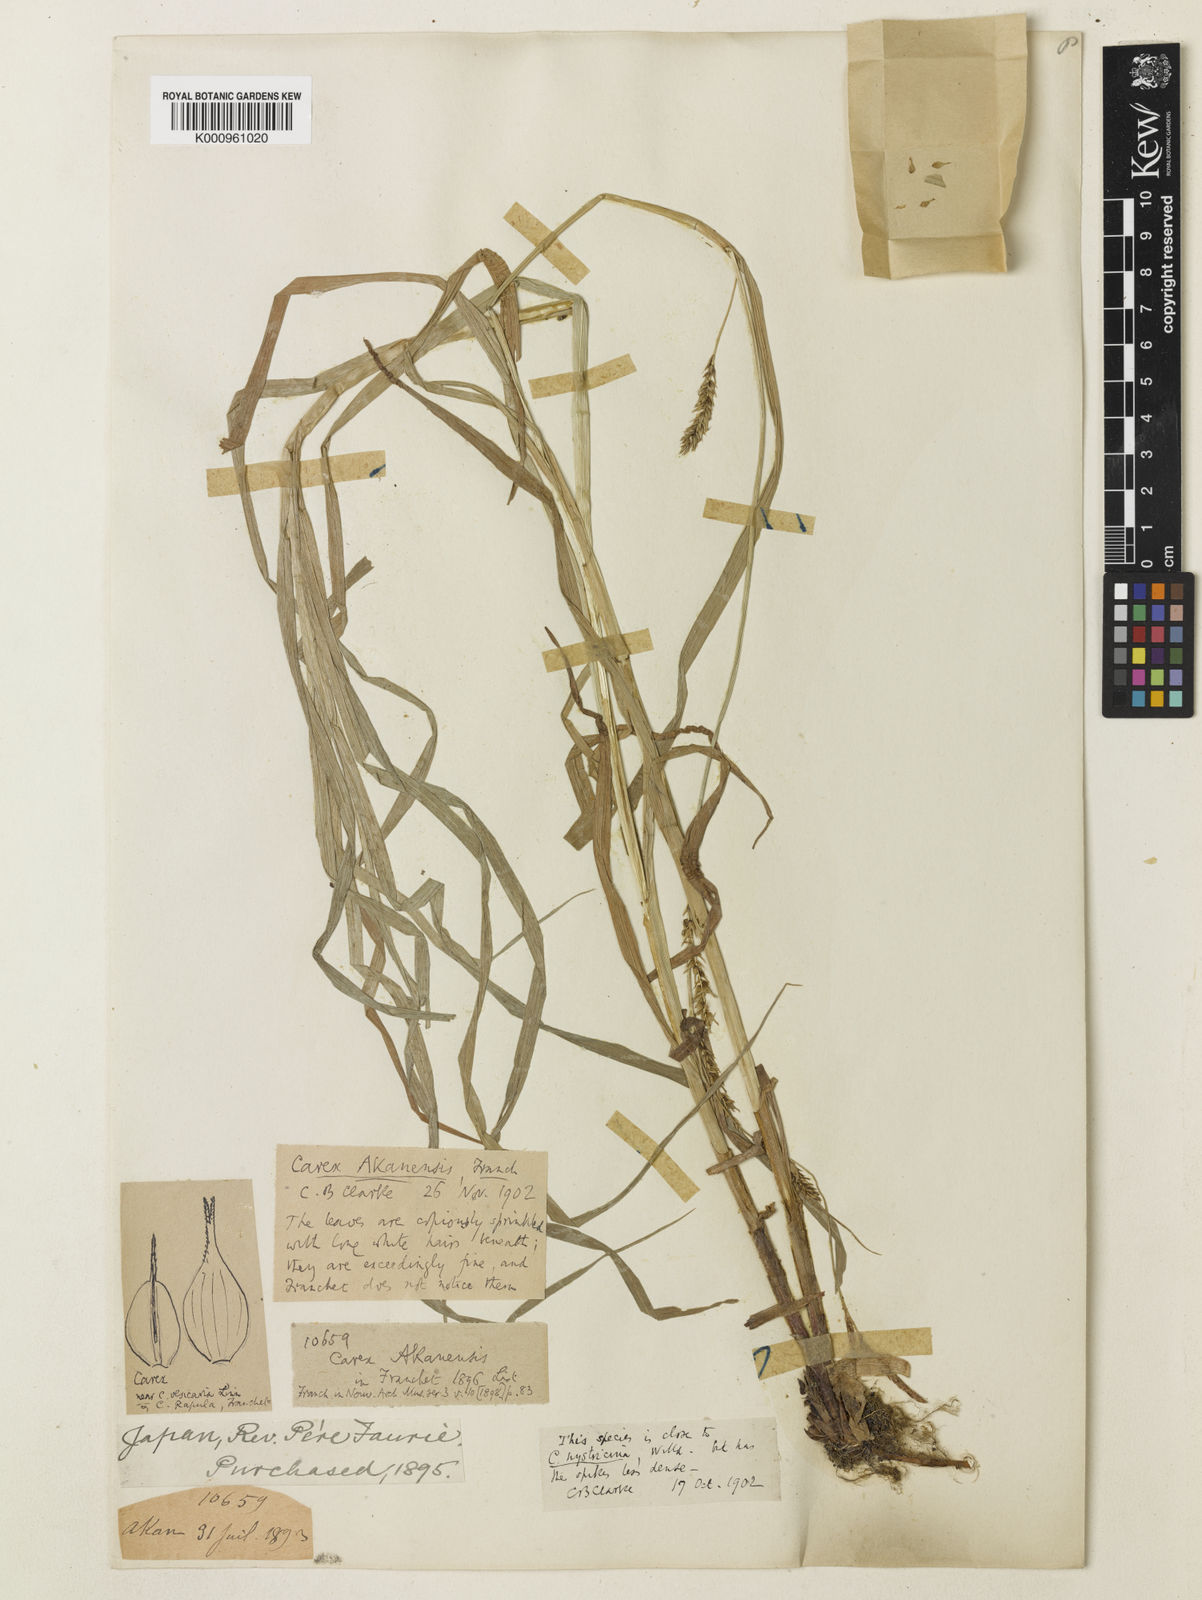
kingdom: Plantae
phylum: Tracheophyta
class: Liliopsida
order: Poales
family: Cyperaceae
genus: Carex
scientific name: Carex drymophila
